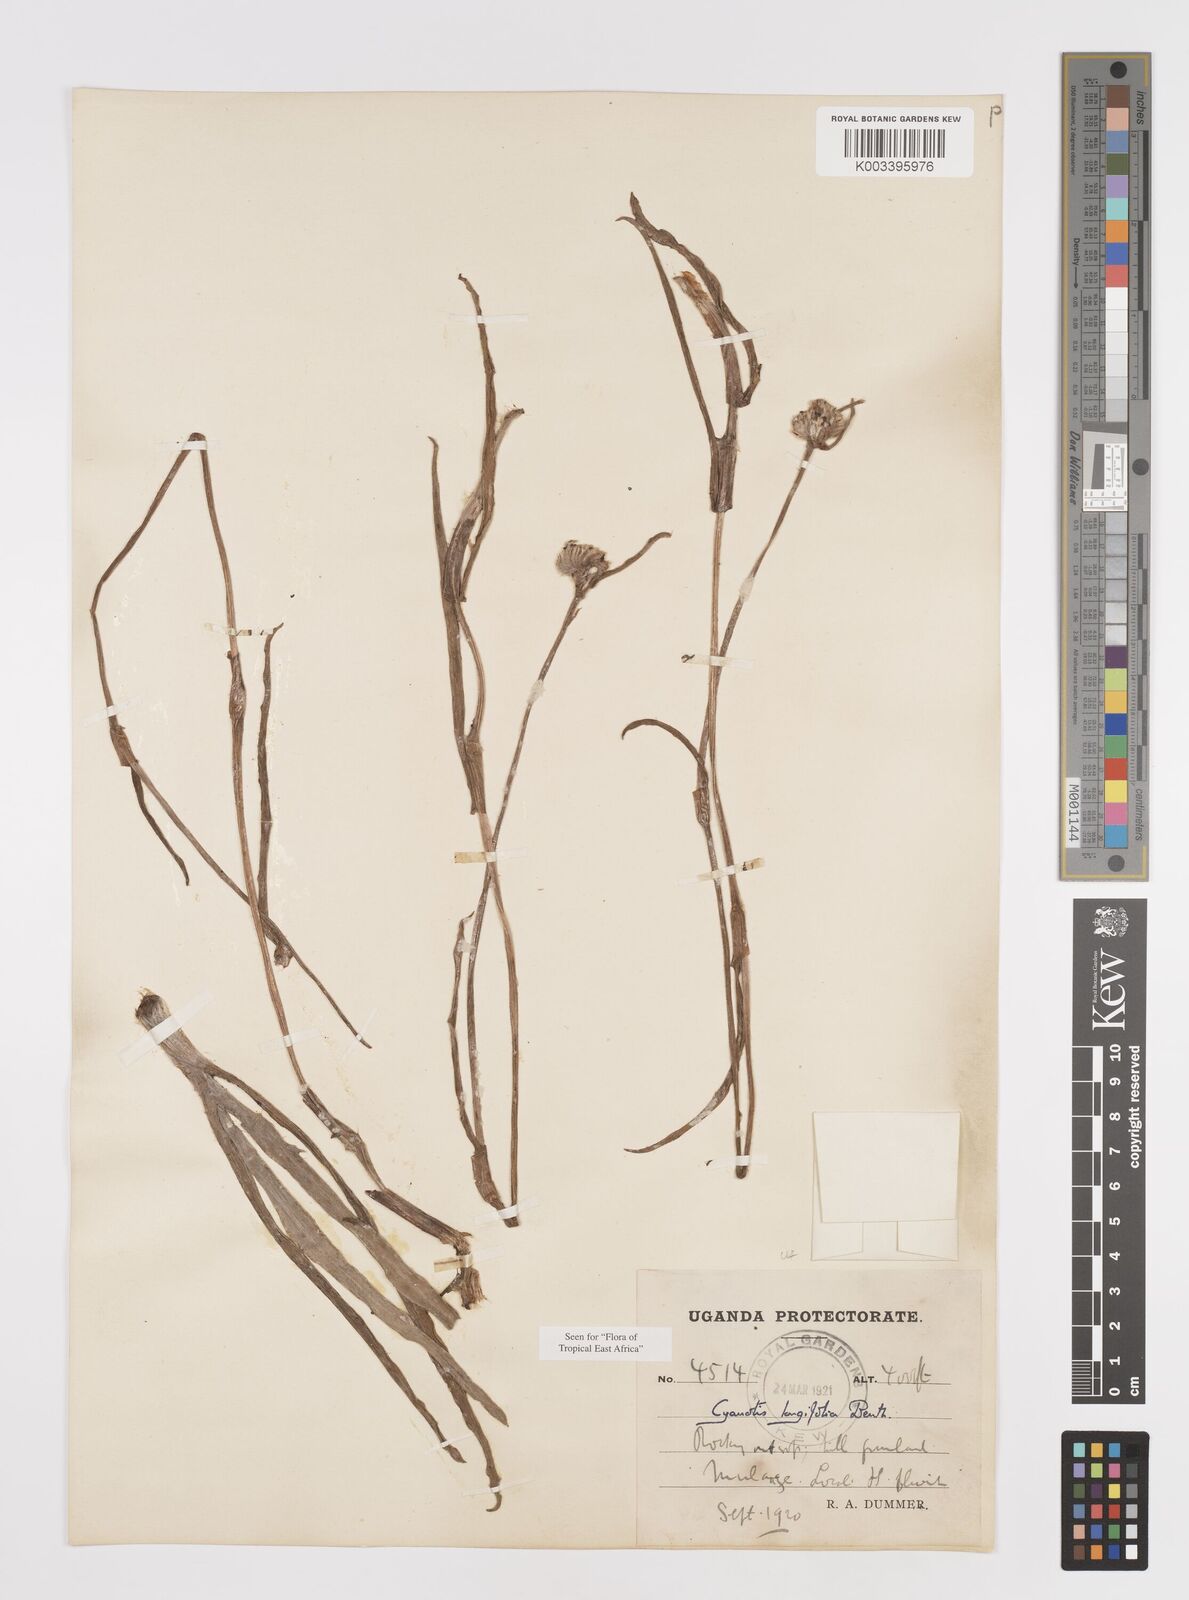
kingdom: Plantae
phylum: Tracheophyta
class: Liliopsida
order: Commelinales
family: Commelinaceae
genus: Cyanotis
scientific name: Cyanotis longifolia
